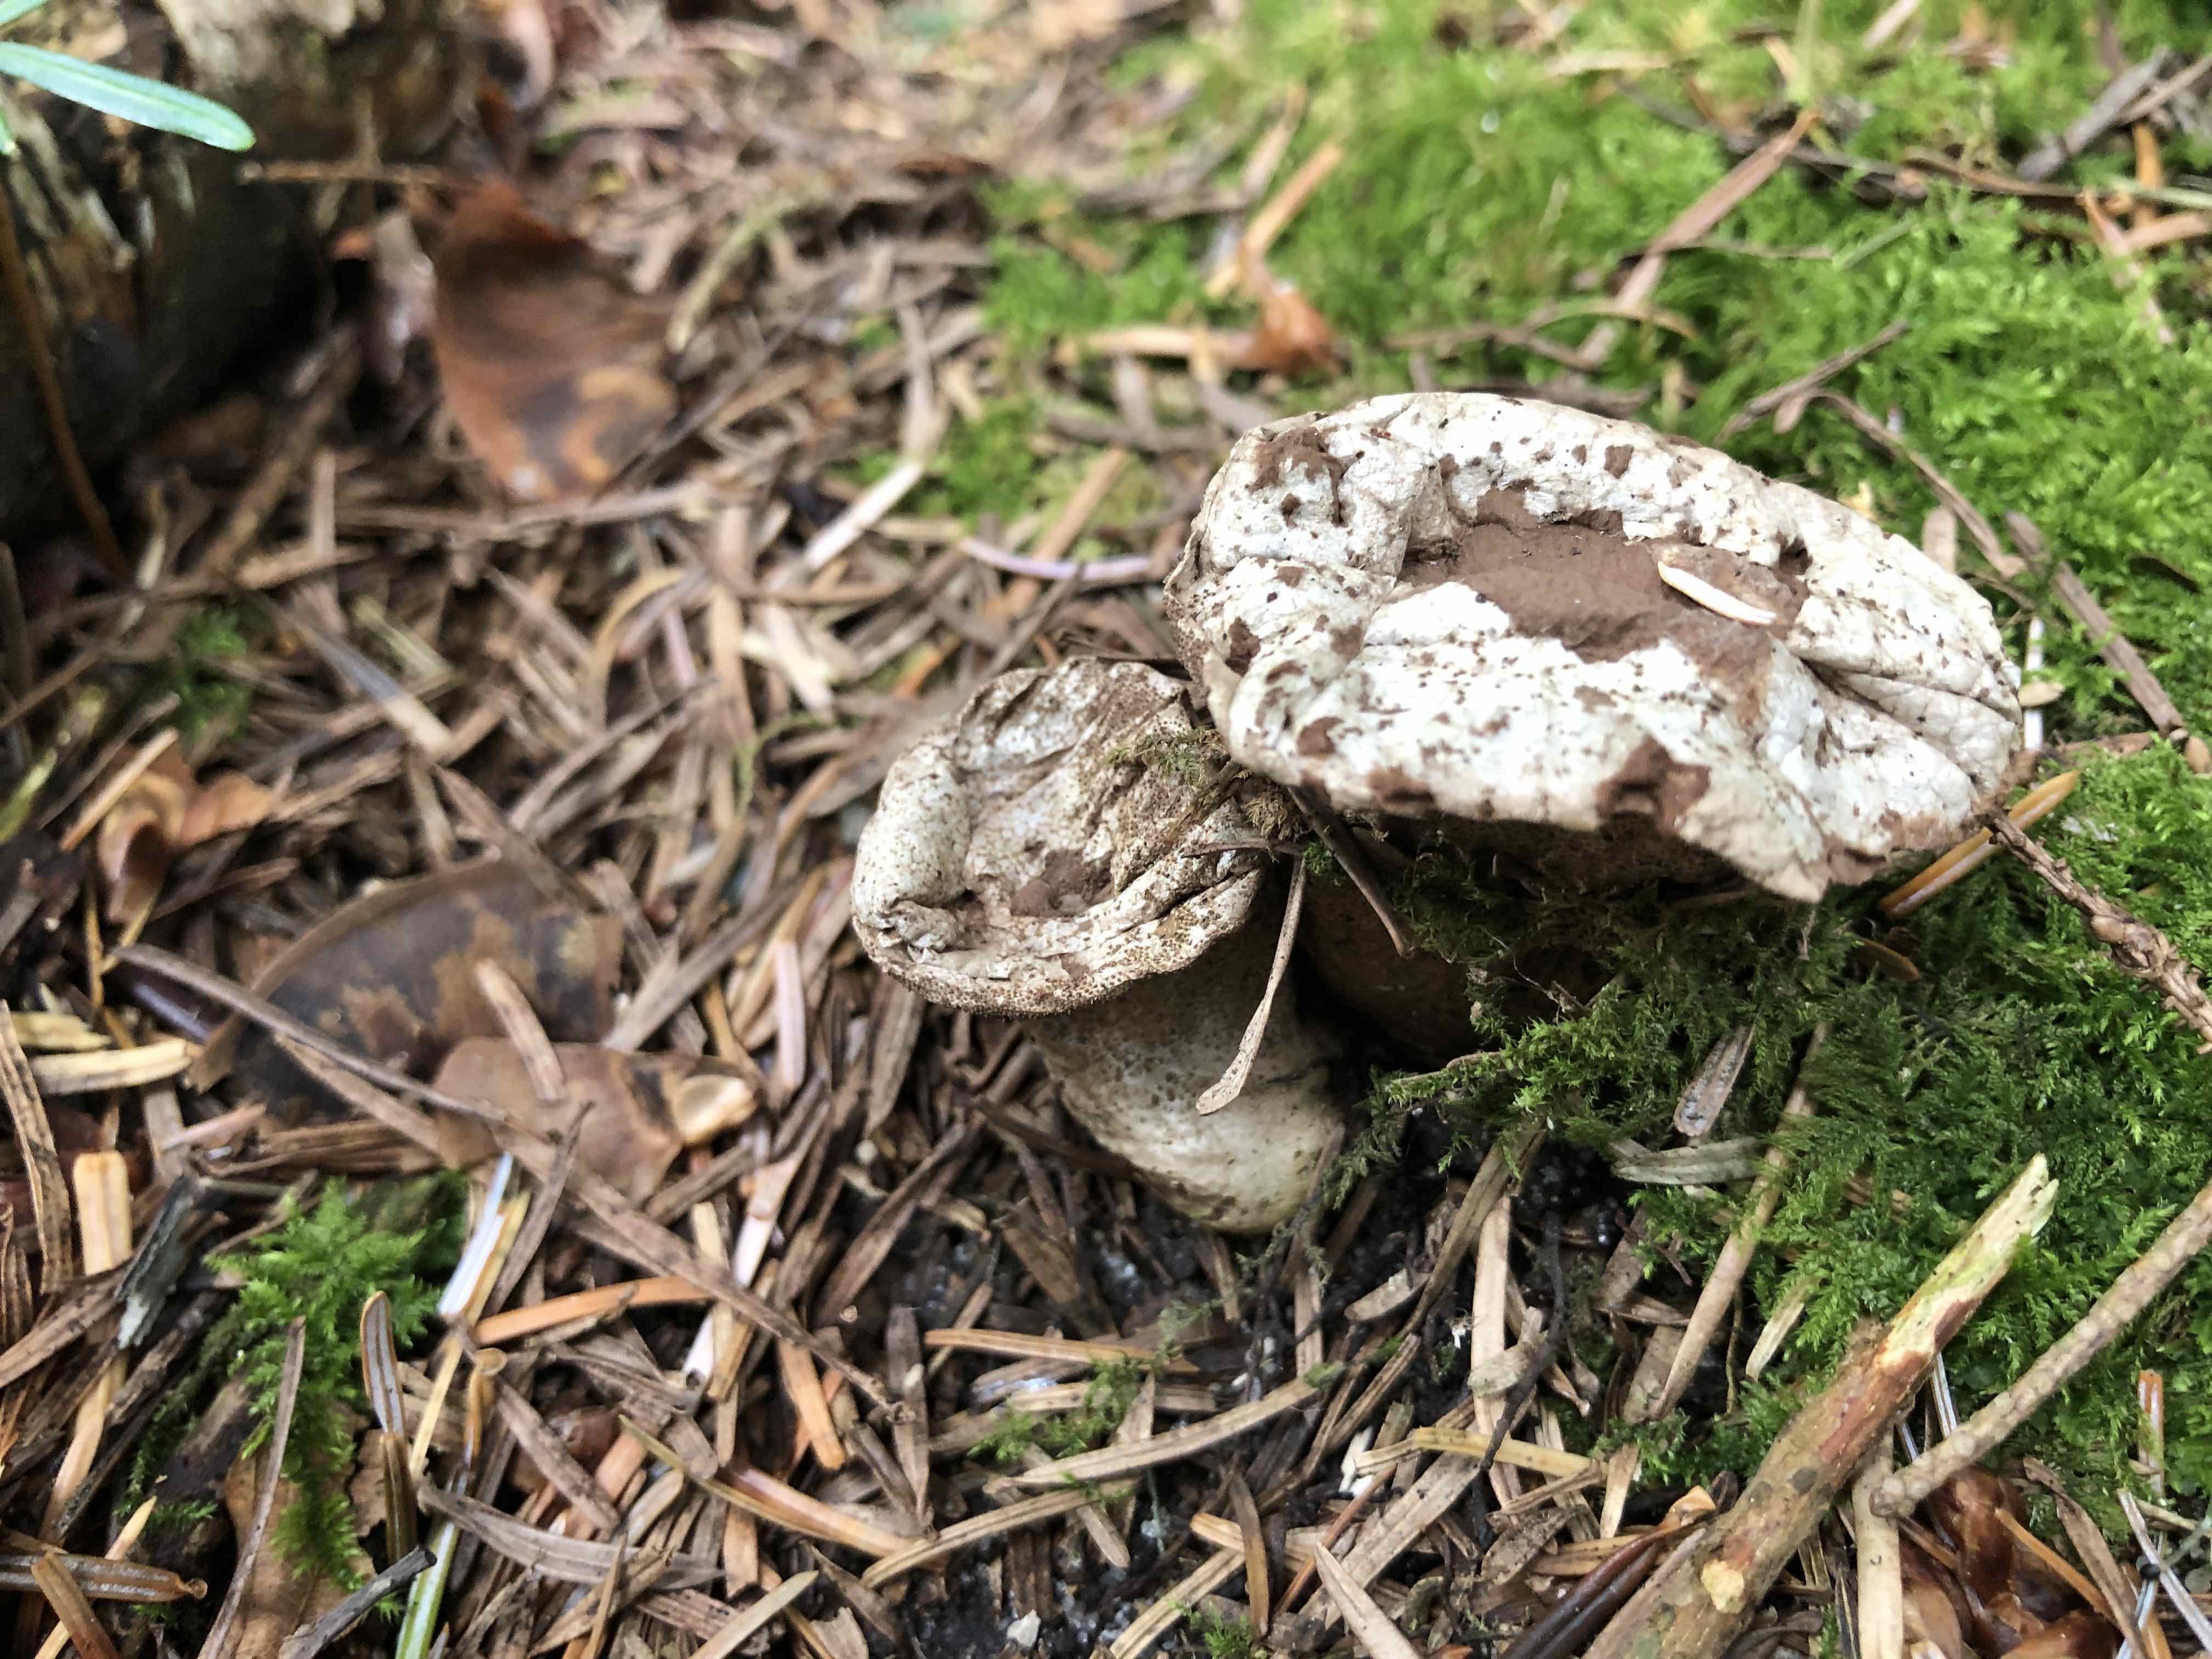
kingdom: Fungi
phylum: Basidiomycota
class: Agaricomycetes
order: Agaricales
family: Agaricaceae
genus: Lycoperdon
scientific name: Lycoperdon
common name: støvbold
